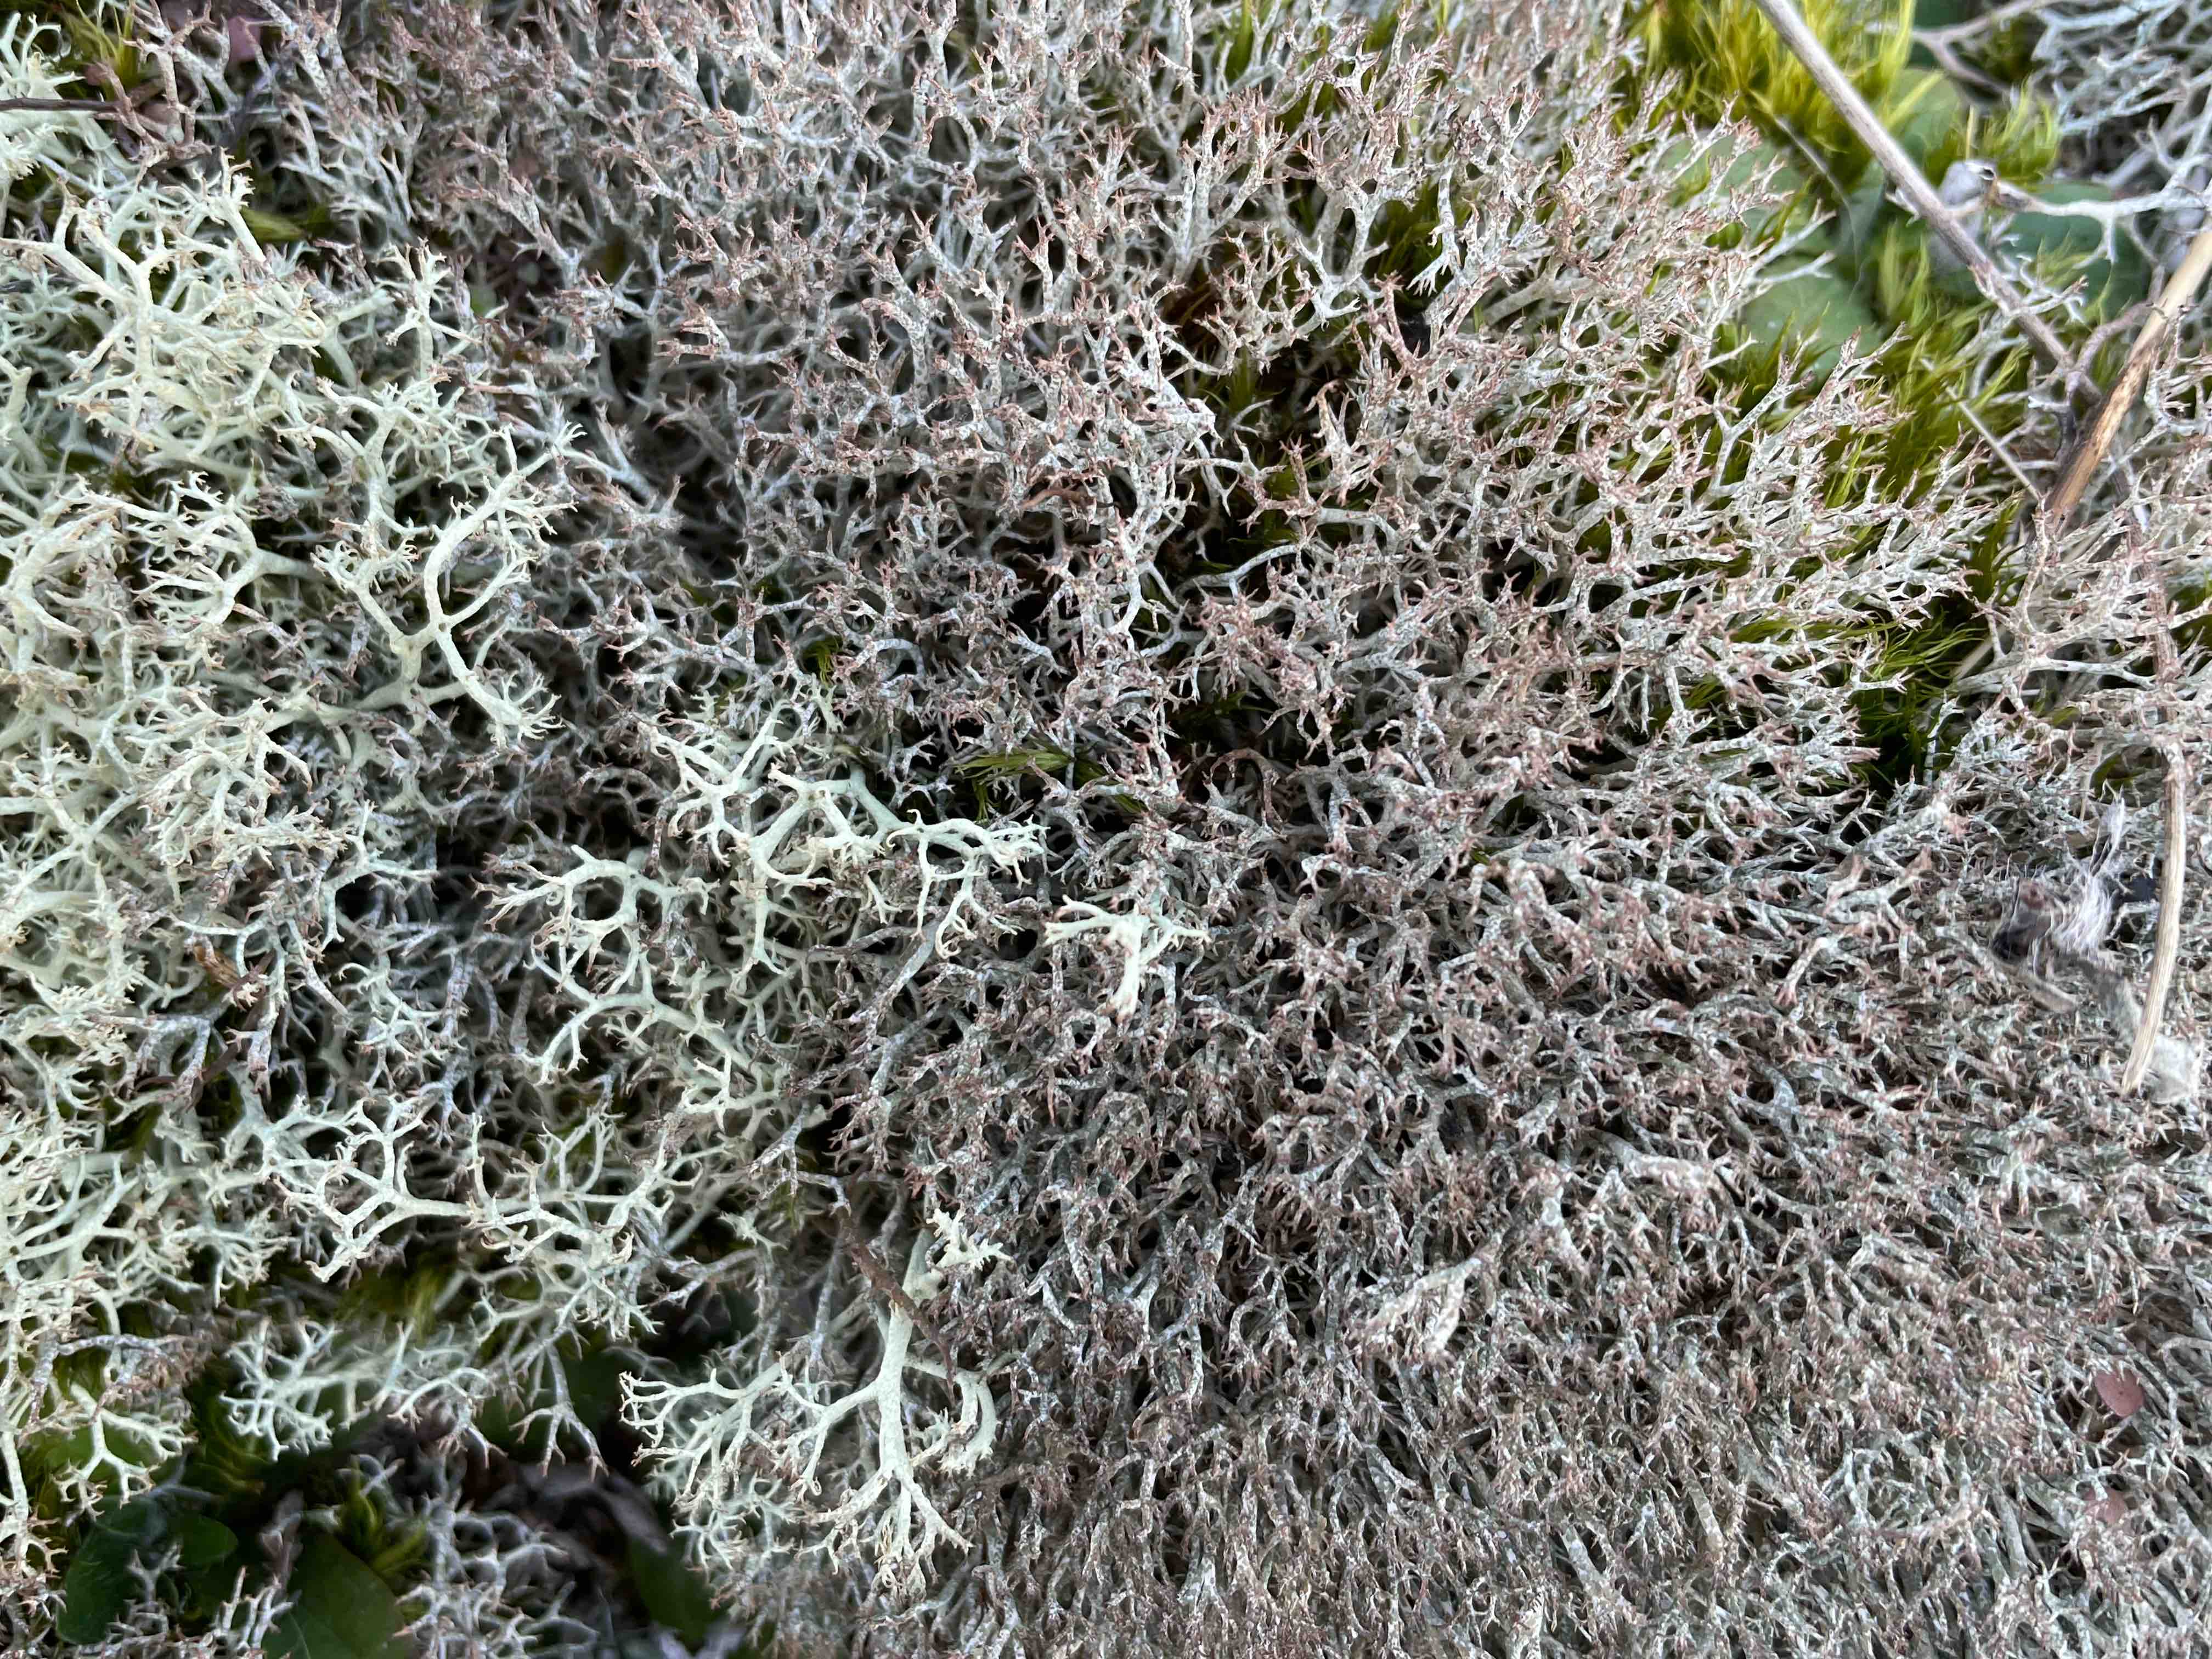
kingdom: Fungi
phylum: Ascomycota
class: Lecanoromycetes
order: Lecanorales
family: Cladoniaceae
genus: Cladonia
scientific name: Cladonia rangiformis
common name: spættet bægerlav
